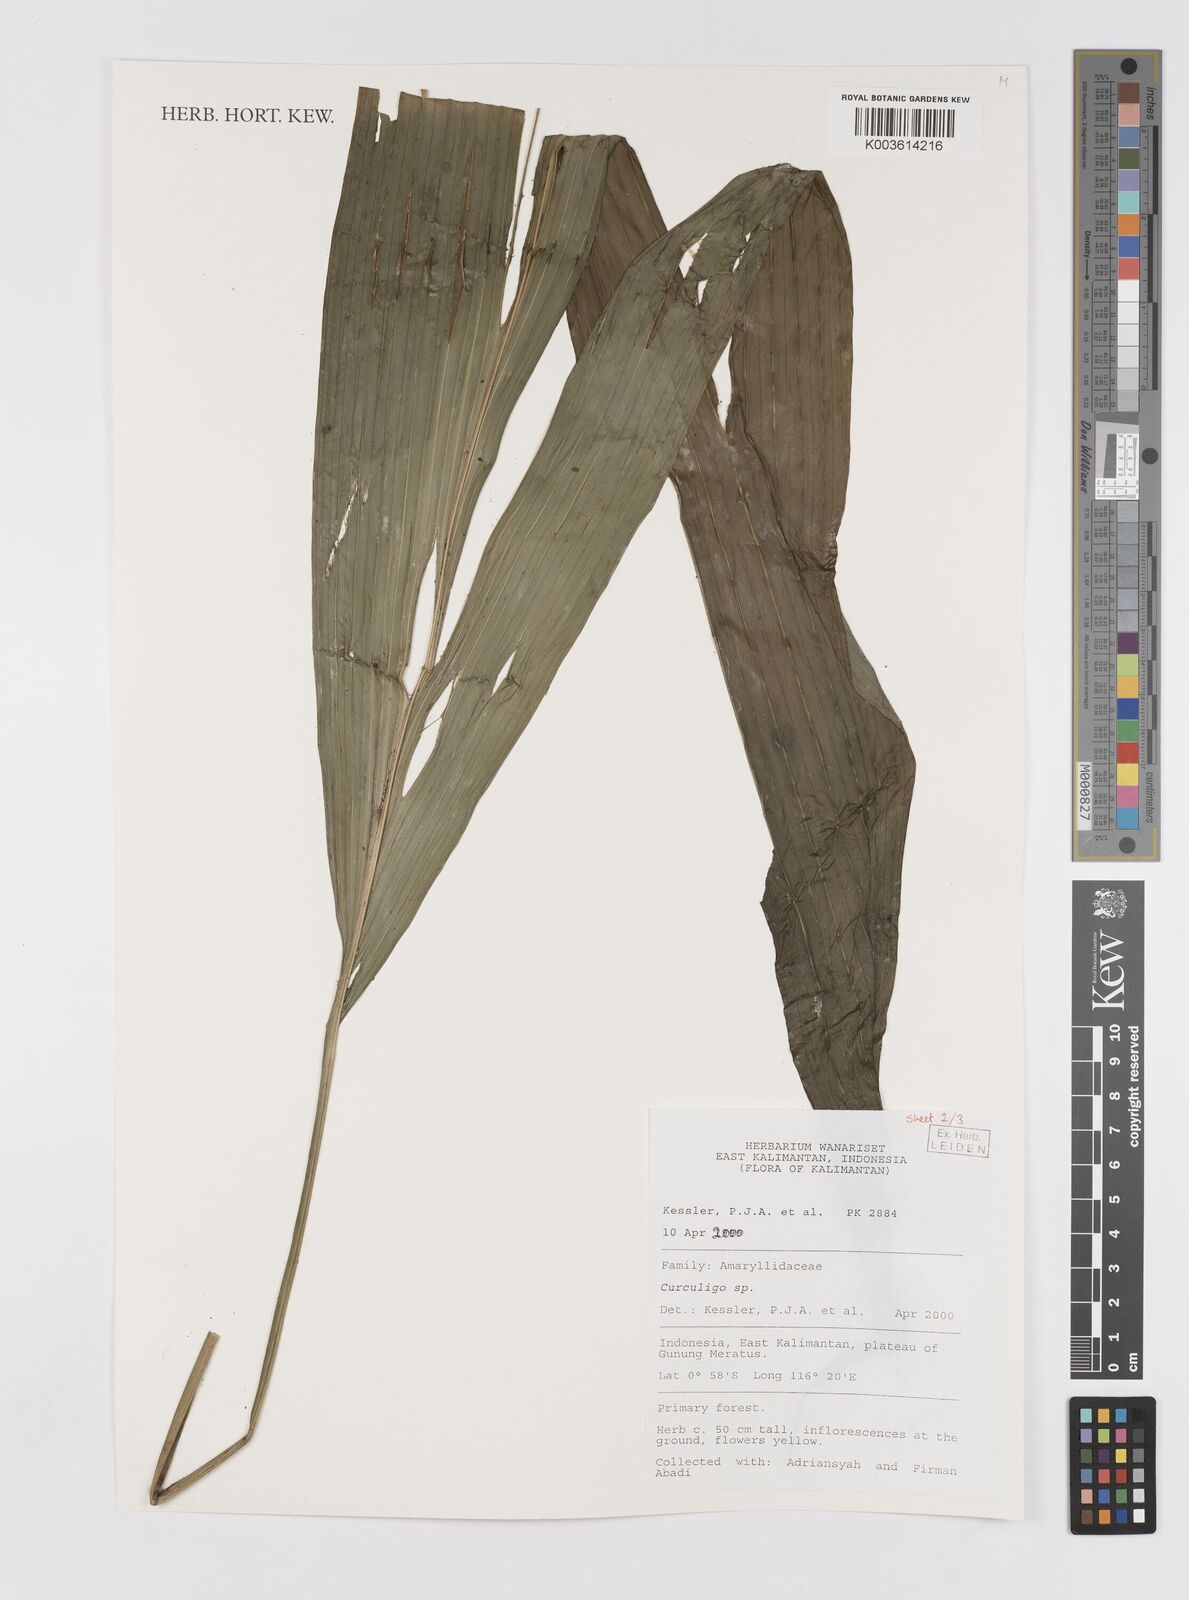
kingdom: Plantae
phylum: Tracheophyta
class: Liliopsida
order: Asparagales
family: Hypoxidaceae
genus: Curculigo
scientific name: Curculigo
